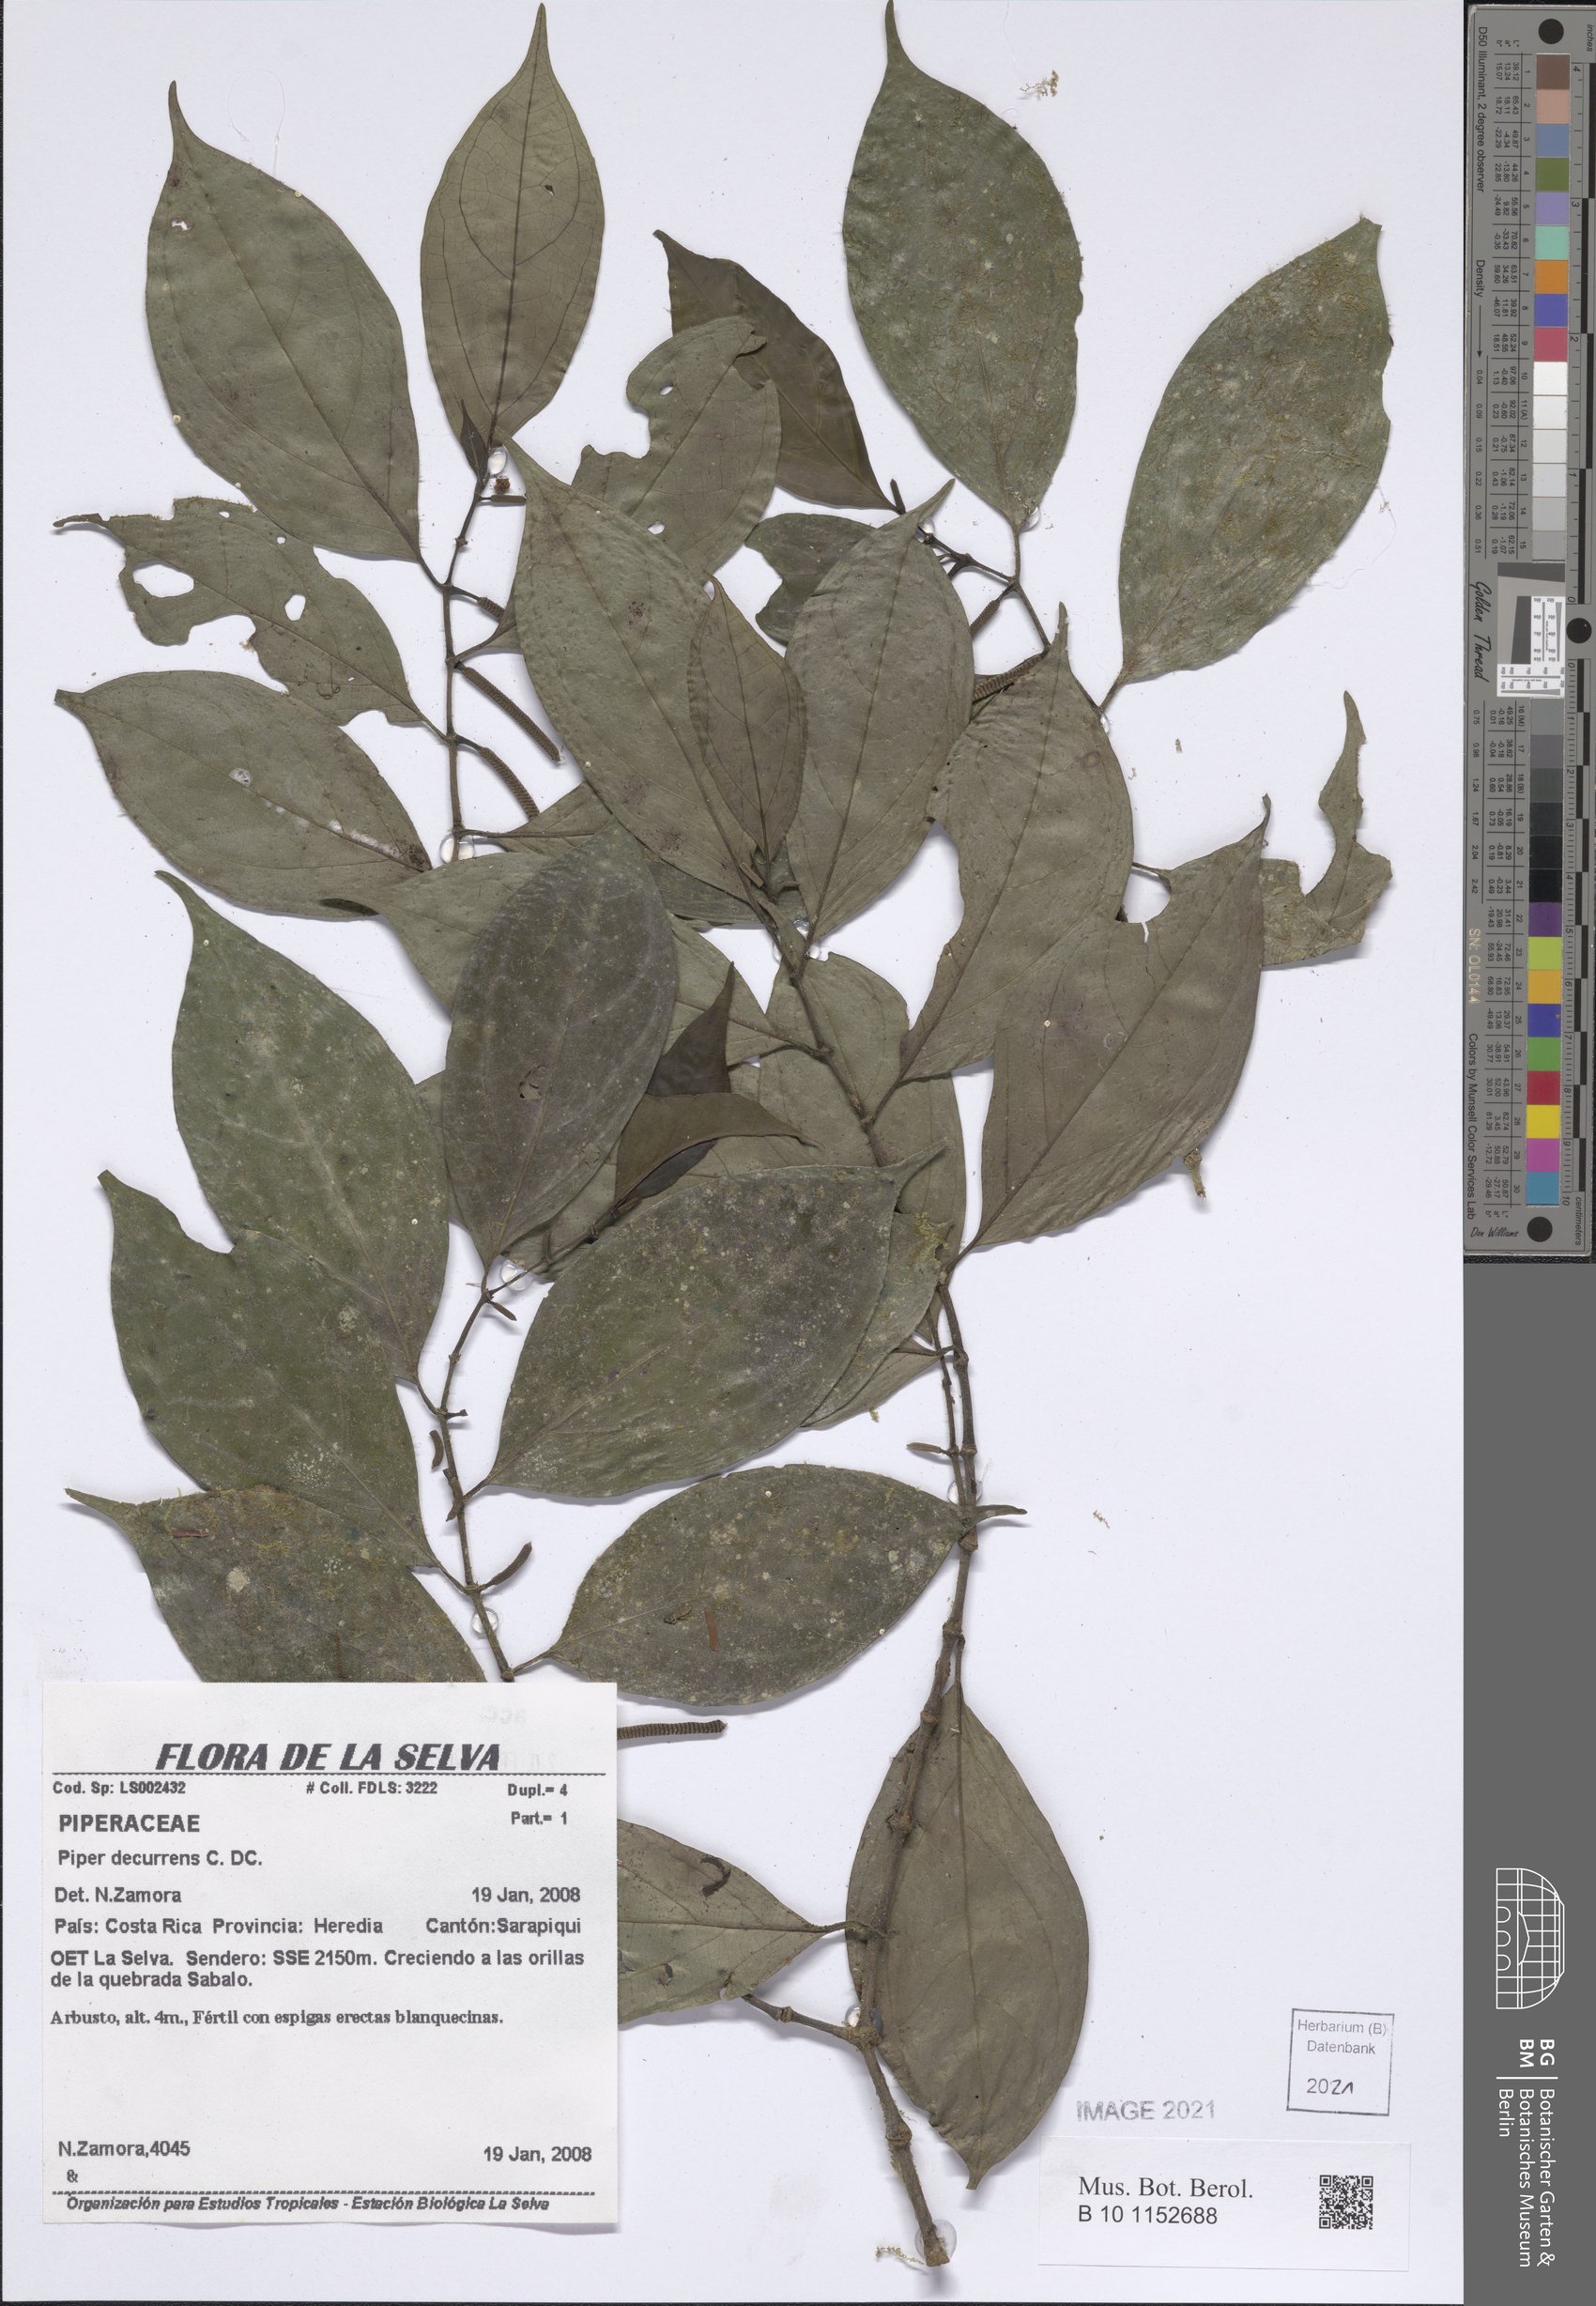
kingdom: Plantae
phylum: Tracheophyta
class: Magnoliopsida
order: Piperales
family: Piperaceae
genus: Piper
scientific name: Piper decurrens
